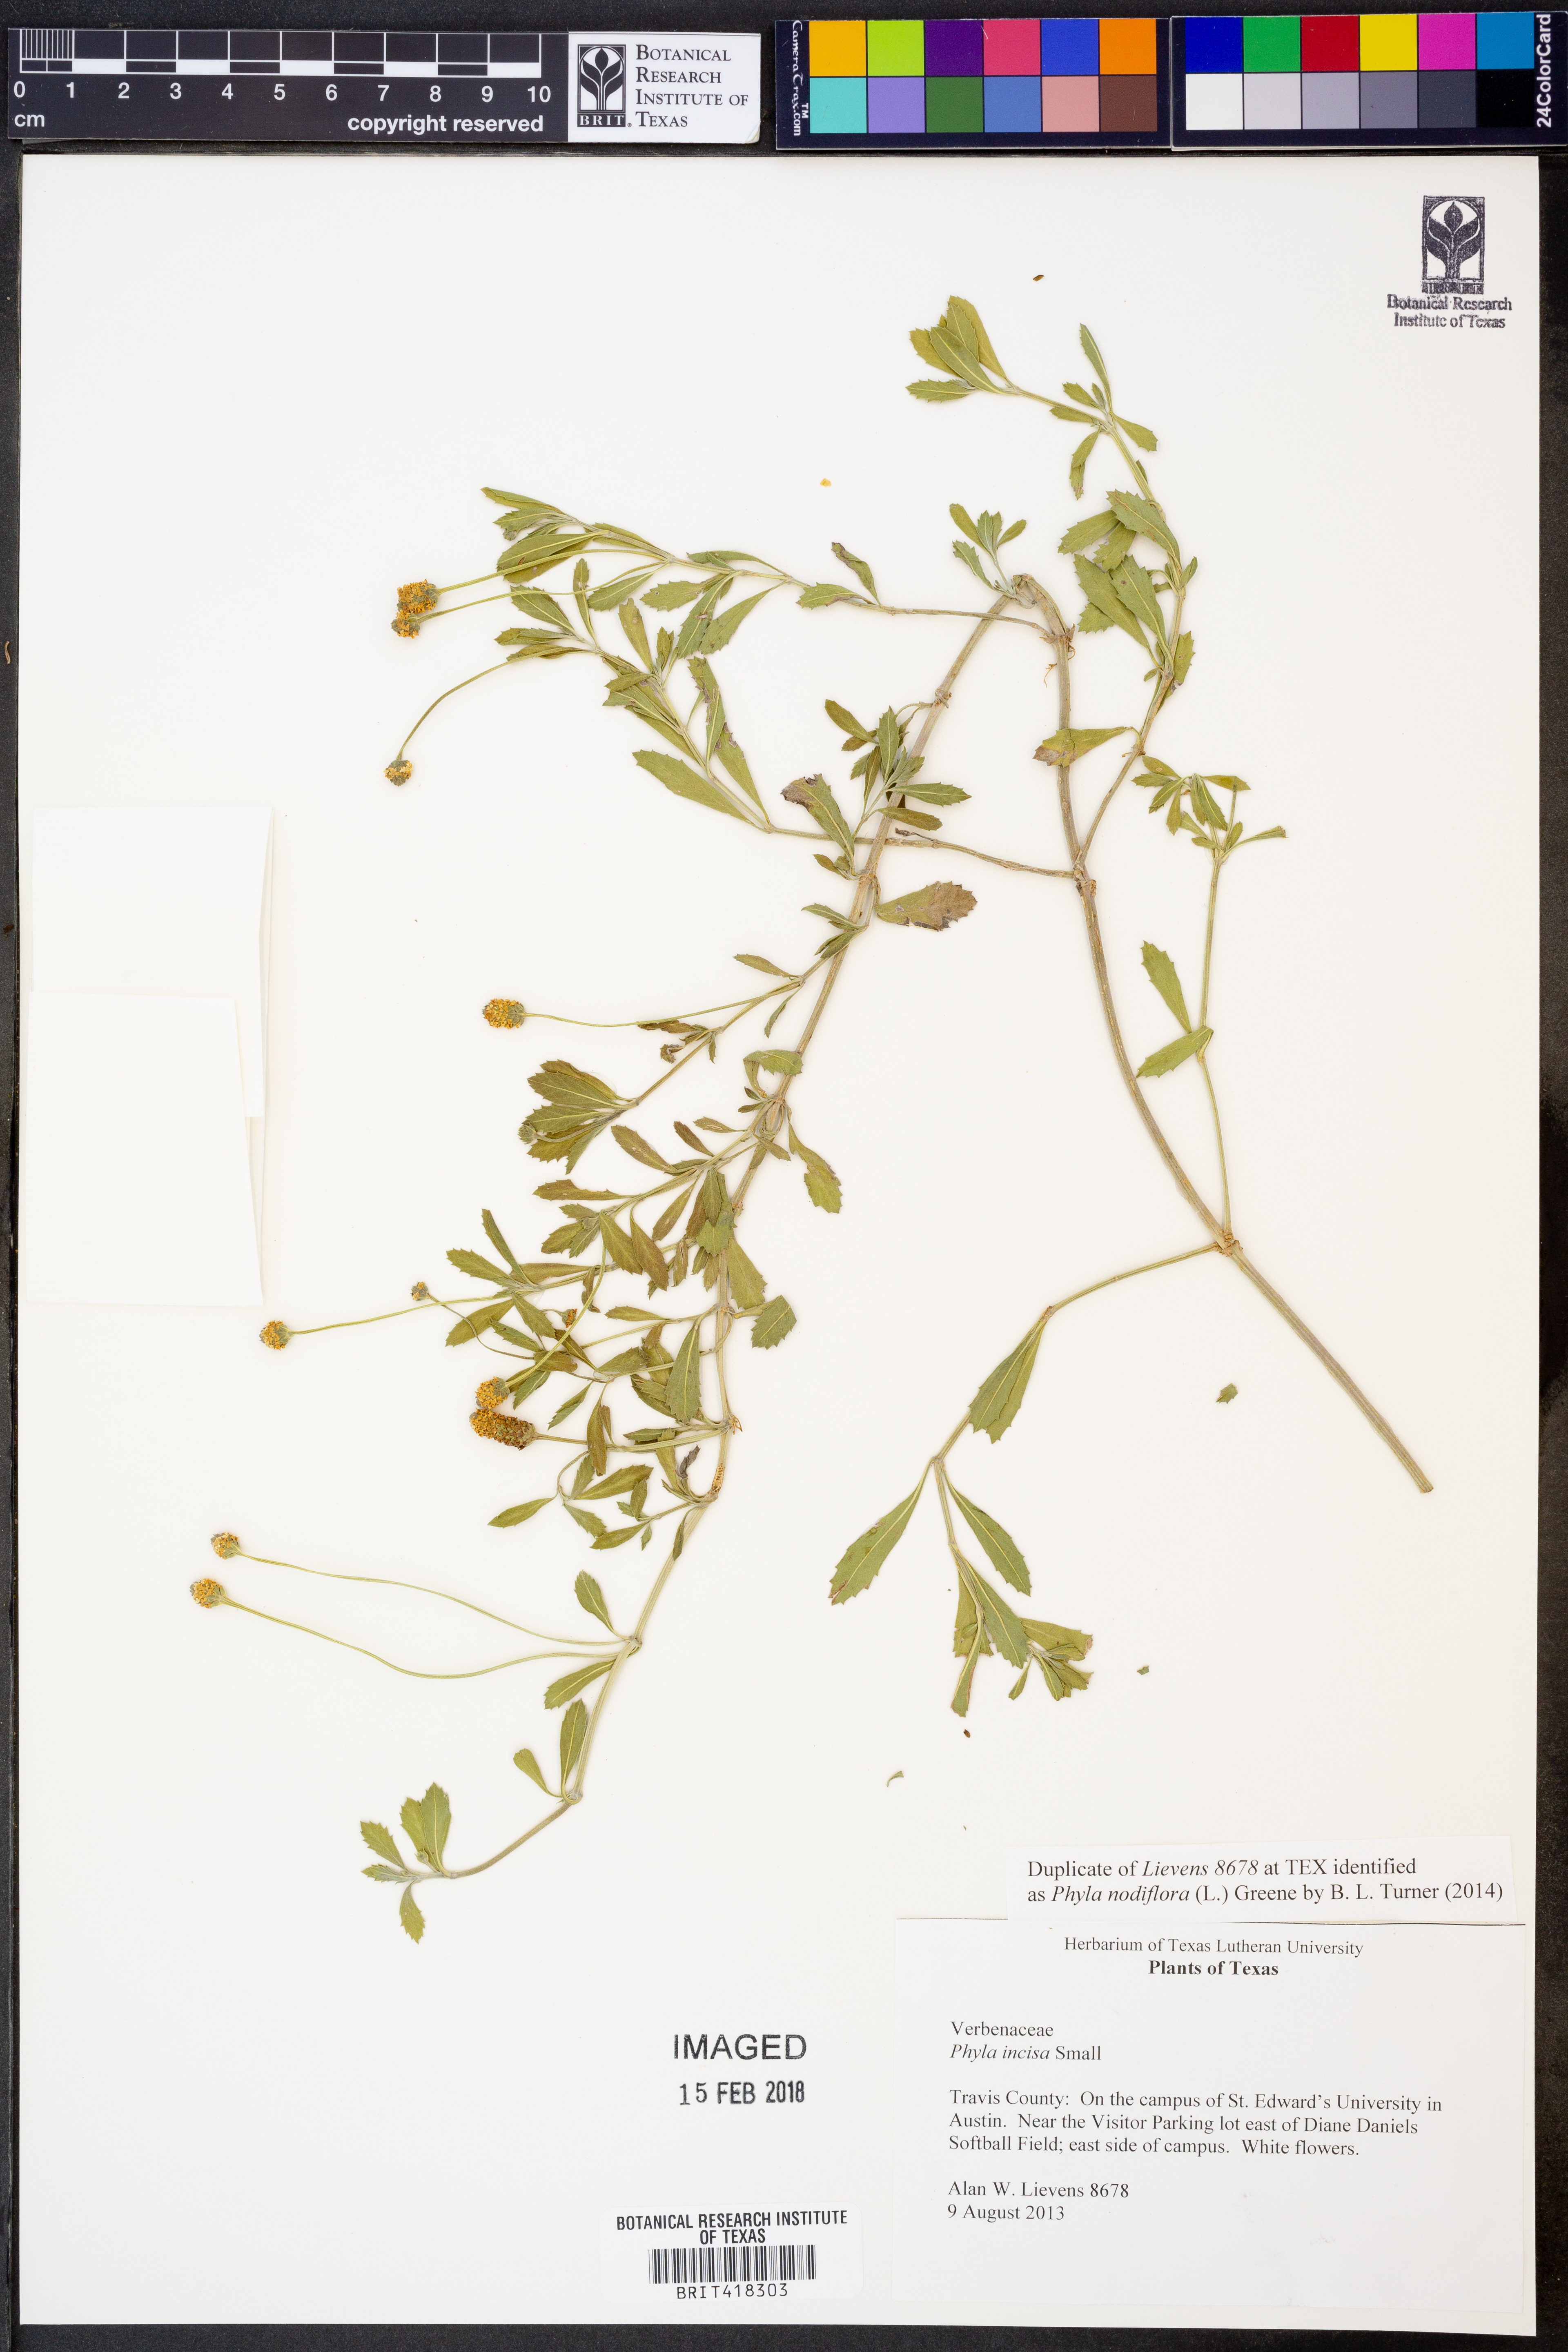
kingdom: Plantae
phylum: Tracheophyta
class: Magnoliopsida
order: Lamiales
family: Verbenaceae
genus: Phyla
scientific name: Phyla nodiflora
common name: Frogfruit
